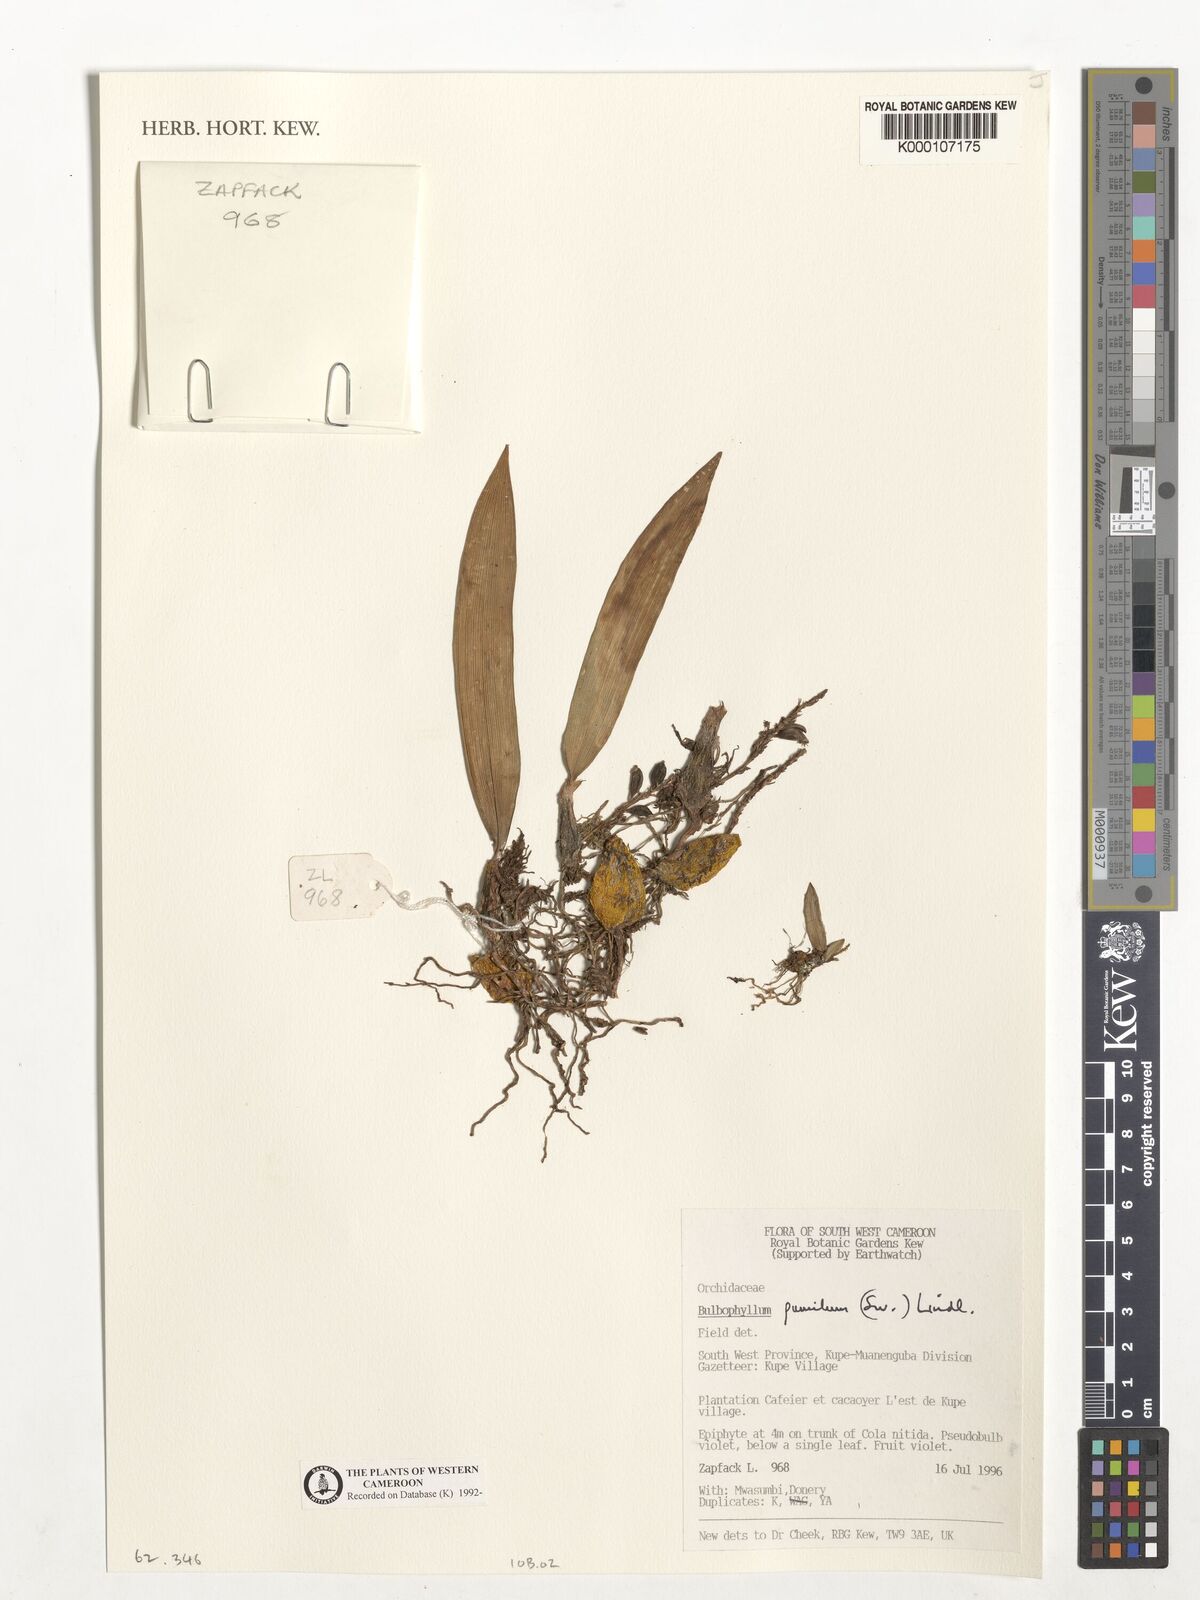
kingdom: Plantae
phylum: Tracheophyta
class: Liliopsida
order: Asparagales
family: Orchidaceae
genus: Bulbophyllum
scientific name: Bulbophyllum pumilum
